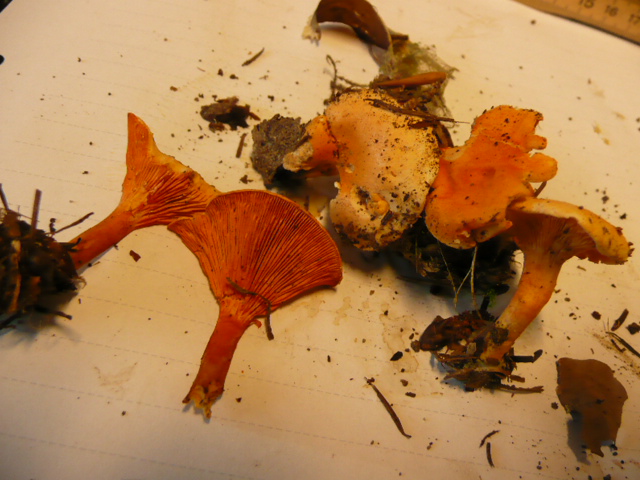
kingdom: Fungi
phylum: Basidiomycota
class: Agaricomycetes
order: Boletales
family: Hygrophoropsidaceae
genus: Hygrophoropsis
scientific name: Hygrophoropsis aurantiaca
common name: almindelig orangekantarel
